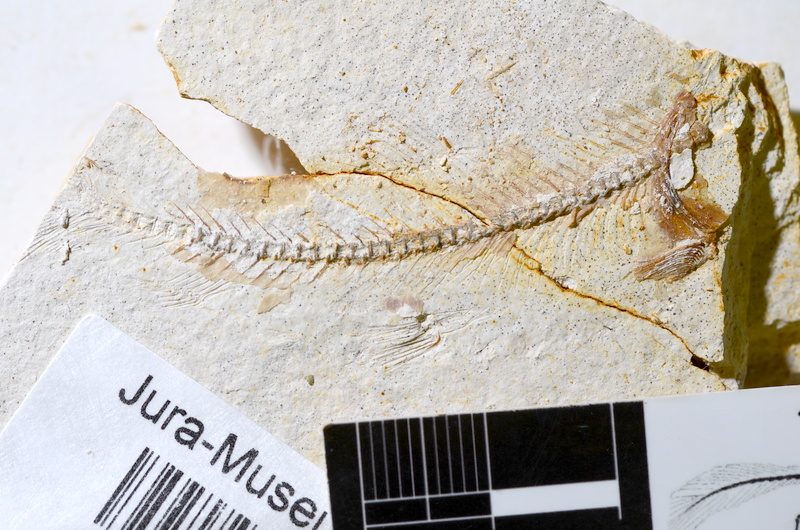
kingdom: Animalia
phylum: Chordata
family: Ascalaboidae
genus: Ebertichthys
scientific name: Ebertichthys ettlingensis
